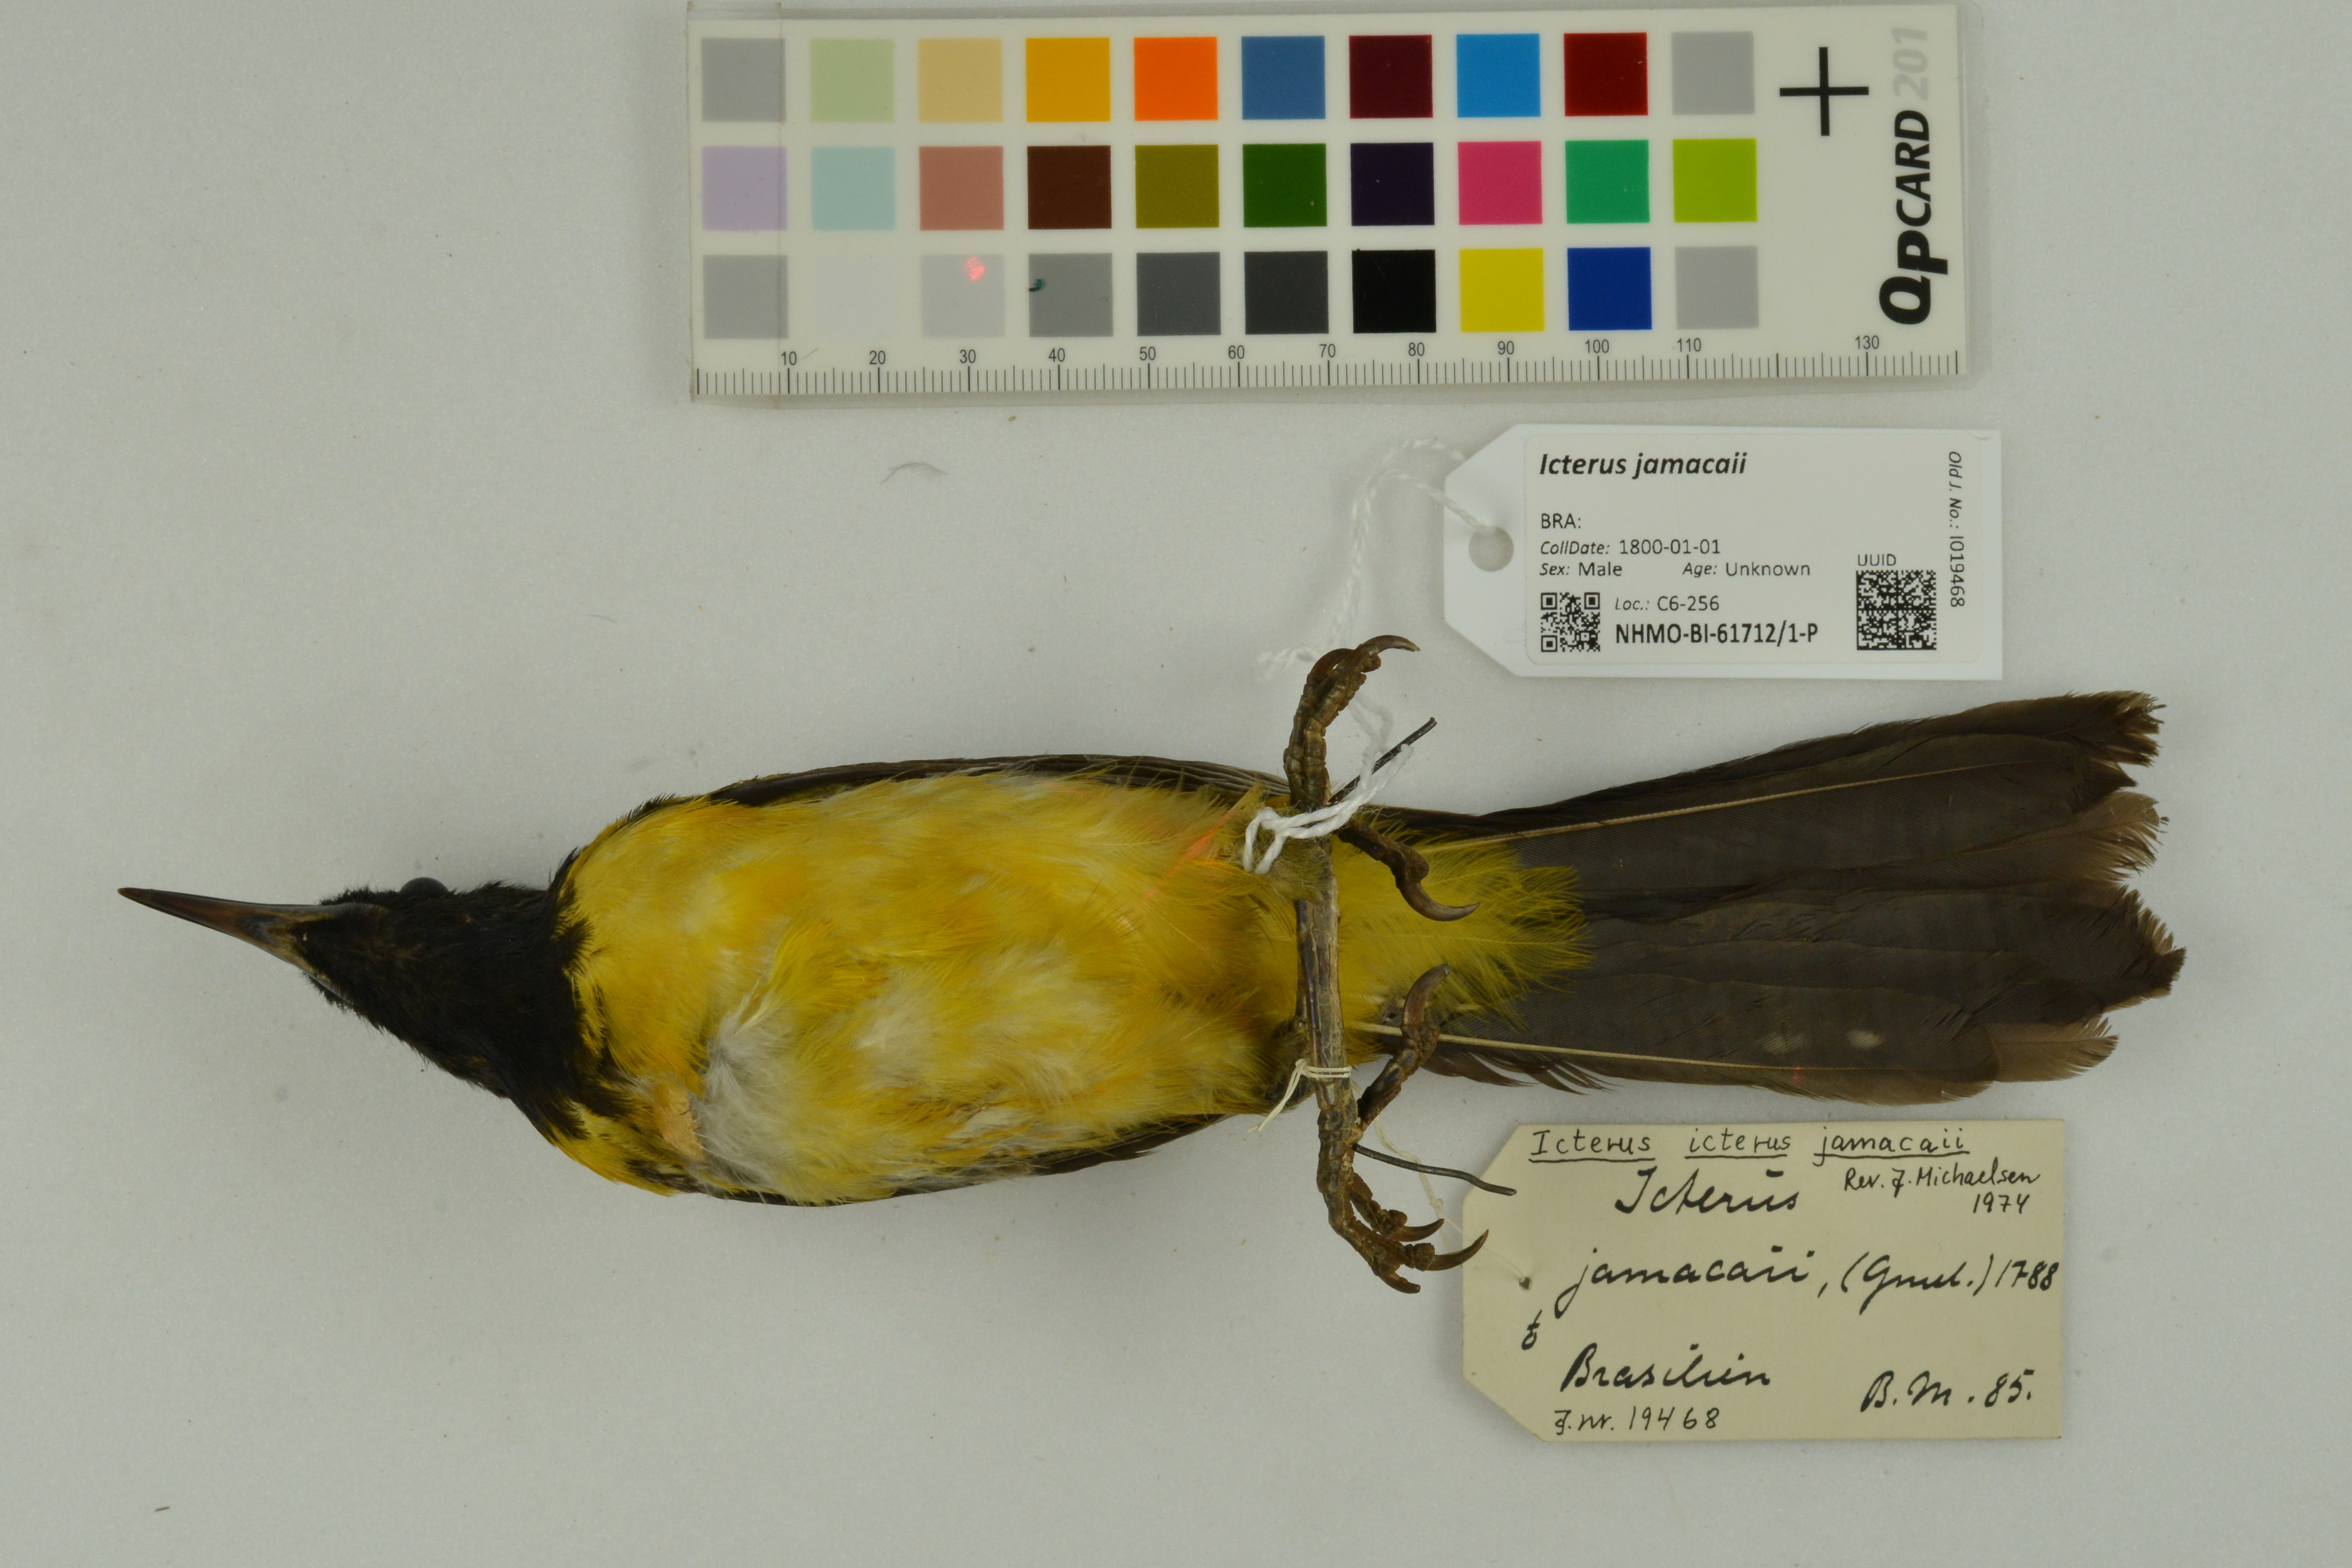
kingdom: Animalia
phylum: Chordata
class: Aves
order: Passeriformes
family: Icteridae
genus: Icterus
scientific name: Icterus icterus
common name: Venezuelan troupial
